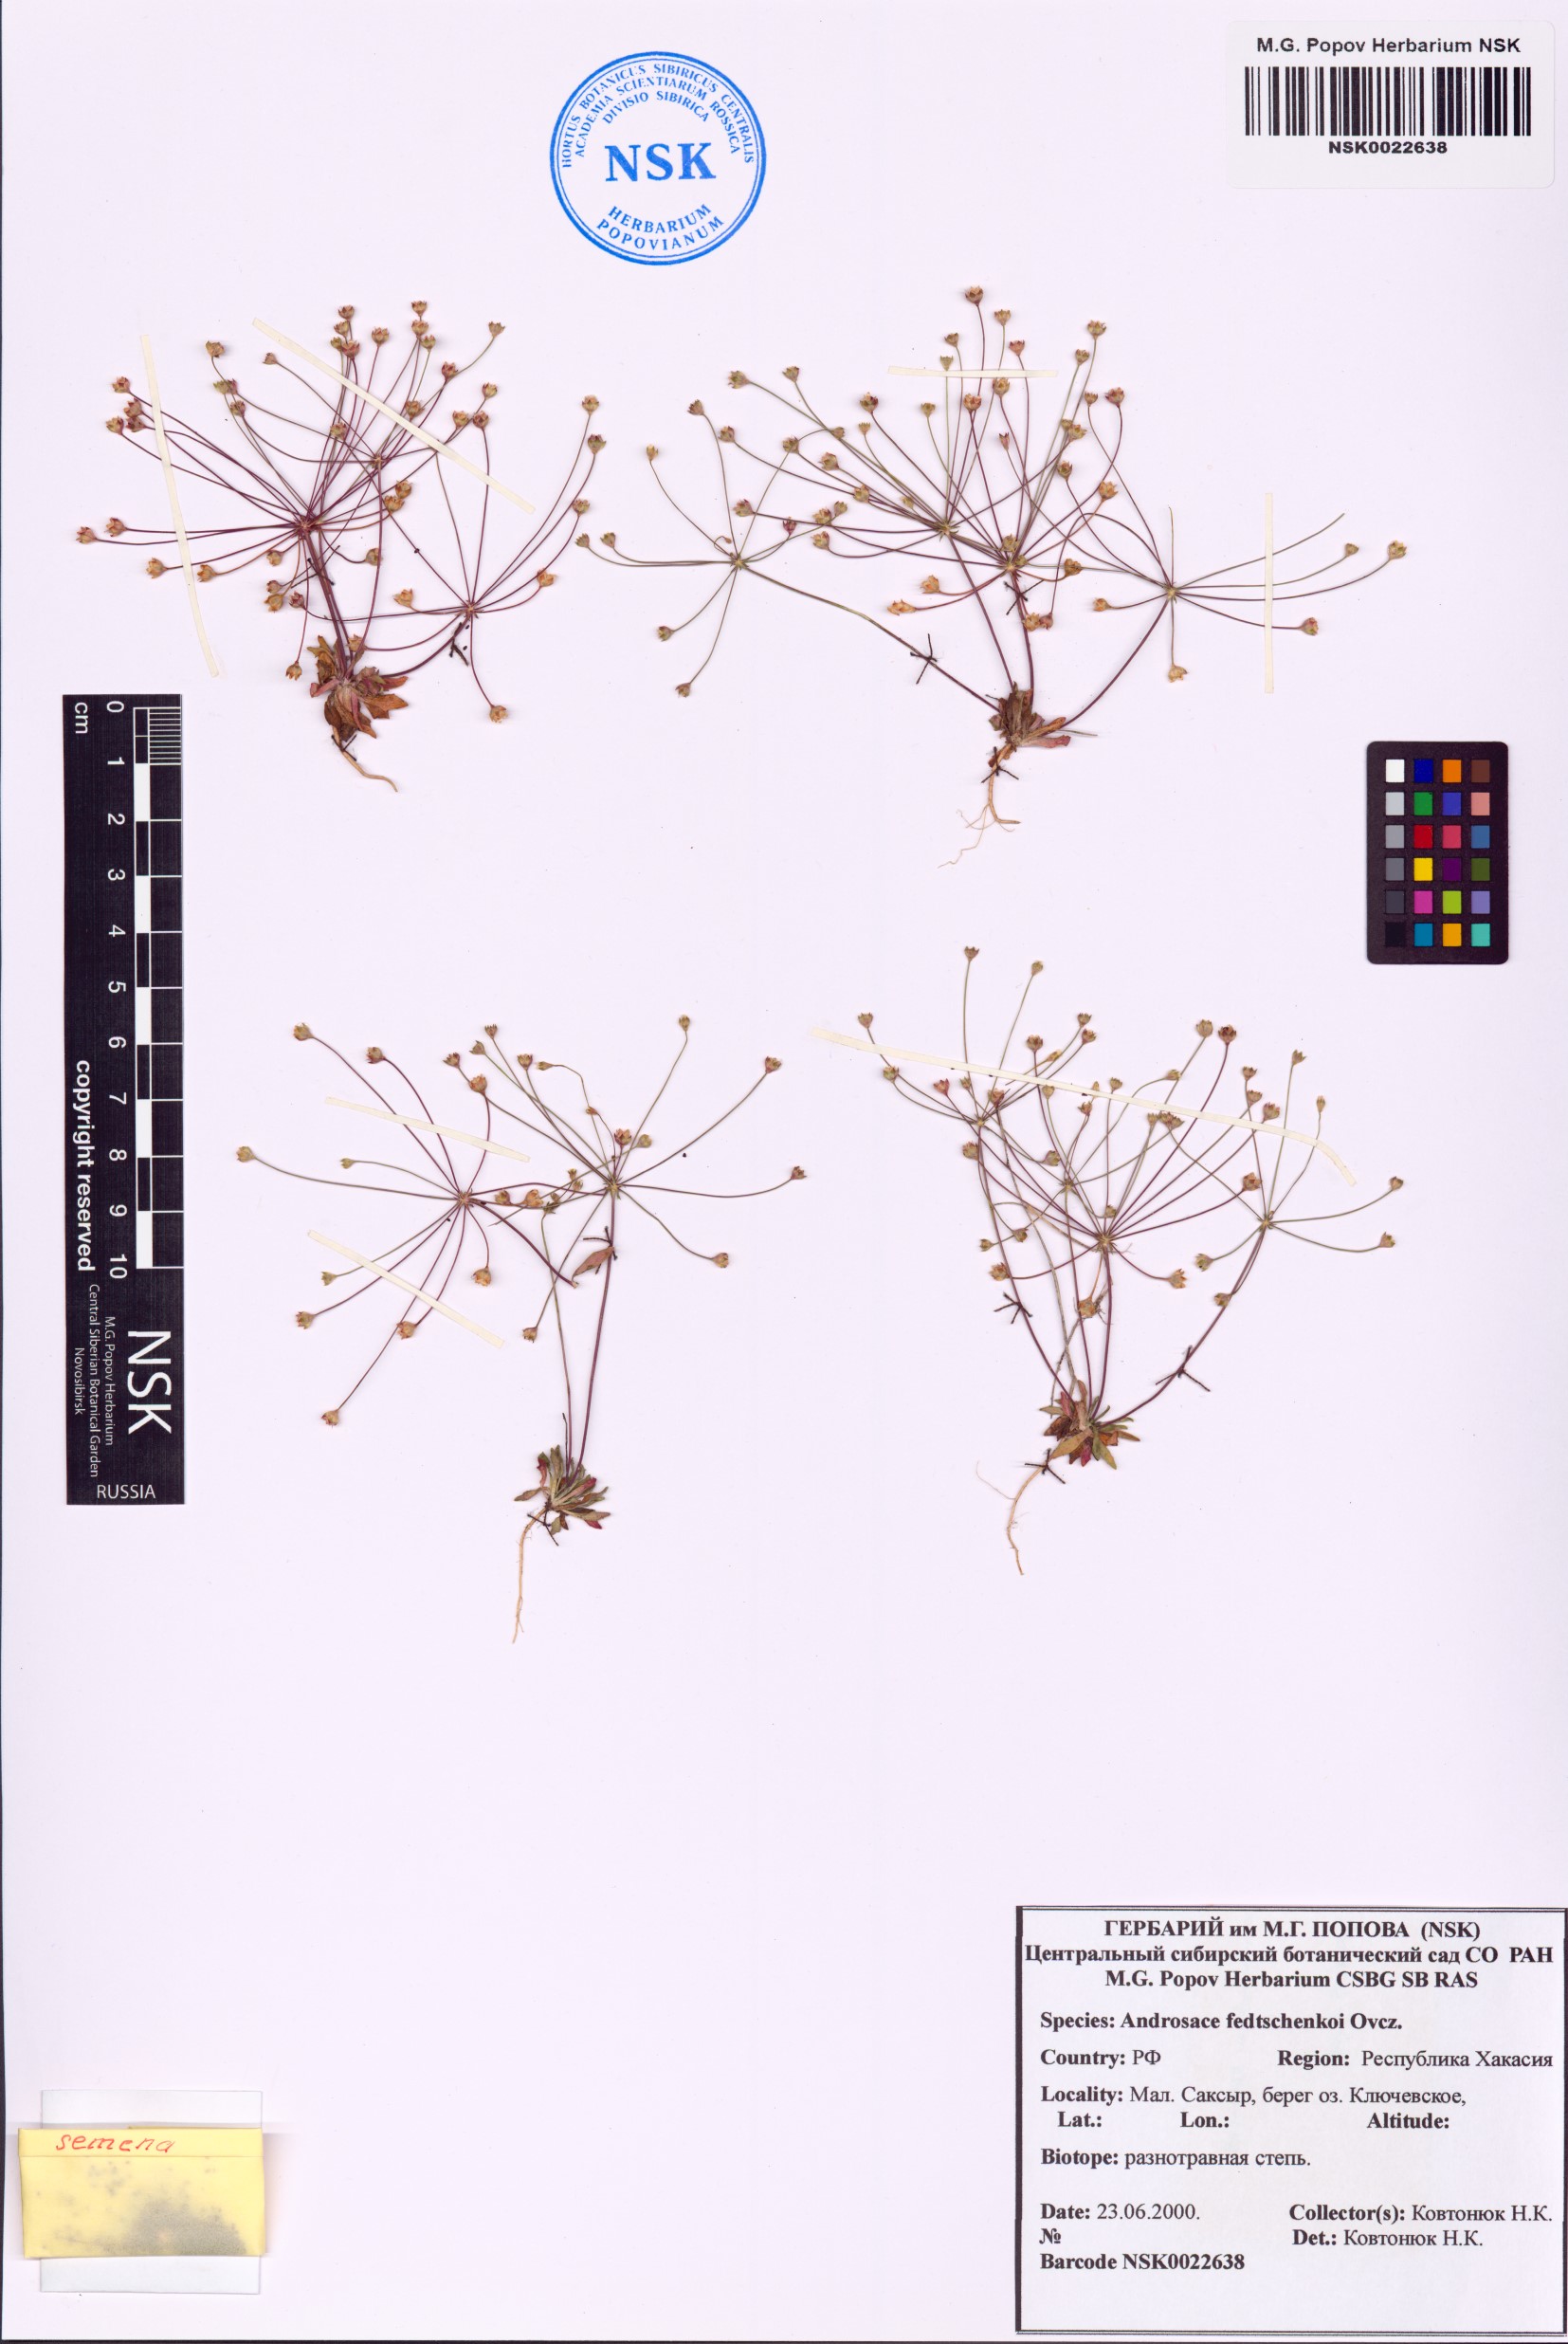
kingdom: Plantae
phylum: Tracheophyta
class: Magnoliopsida
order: Ericales
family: Primulaceae
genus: Androsace
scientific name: Androsace fedtschenkoi
